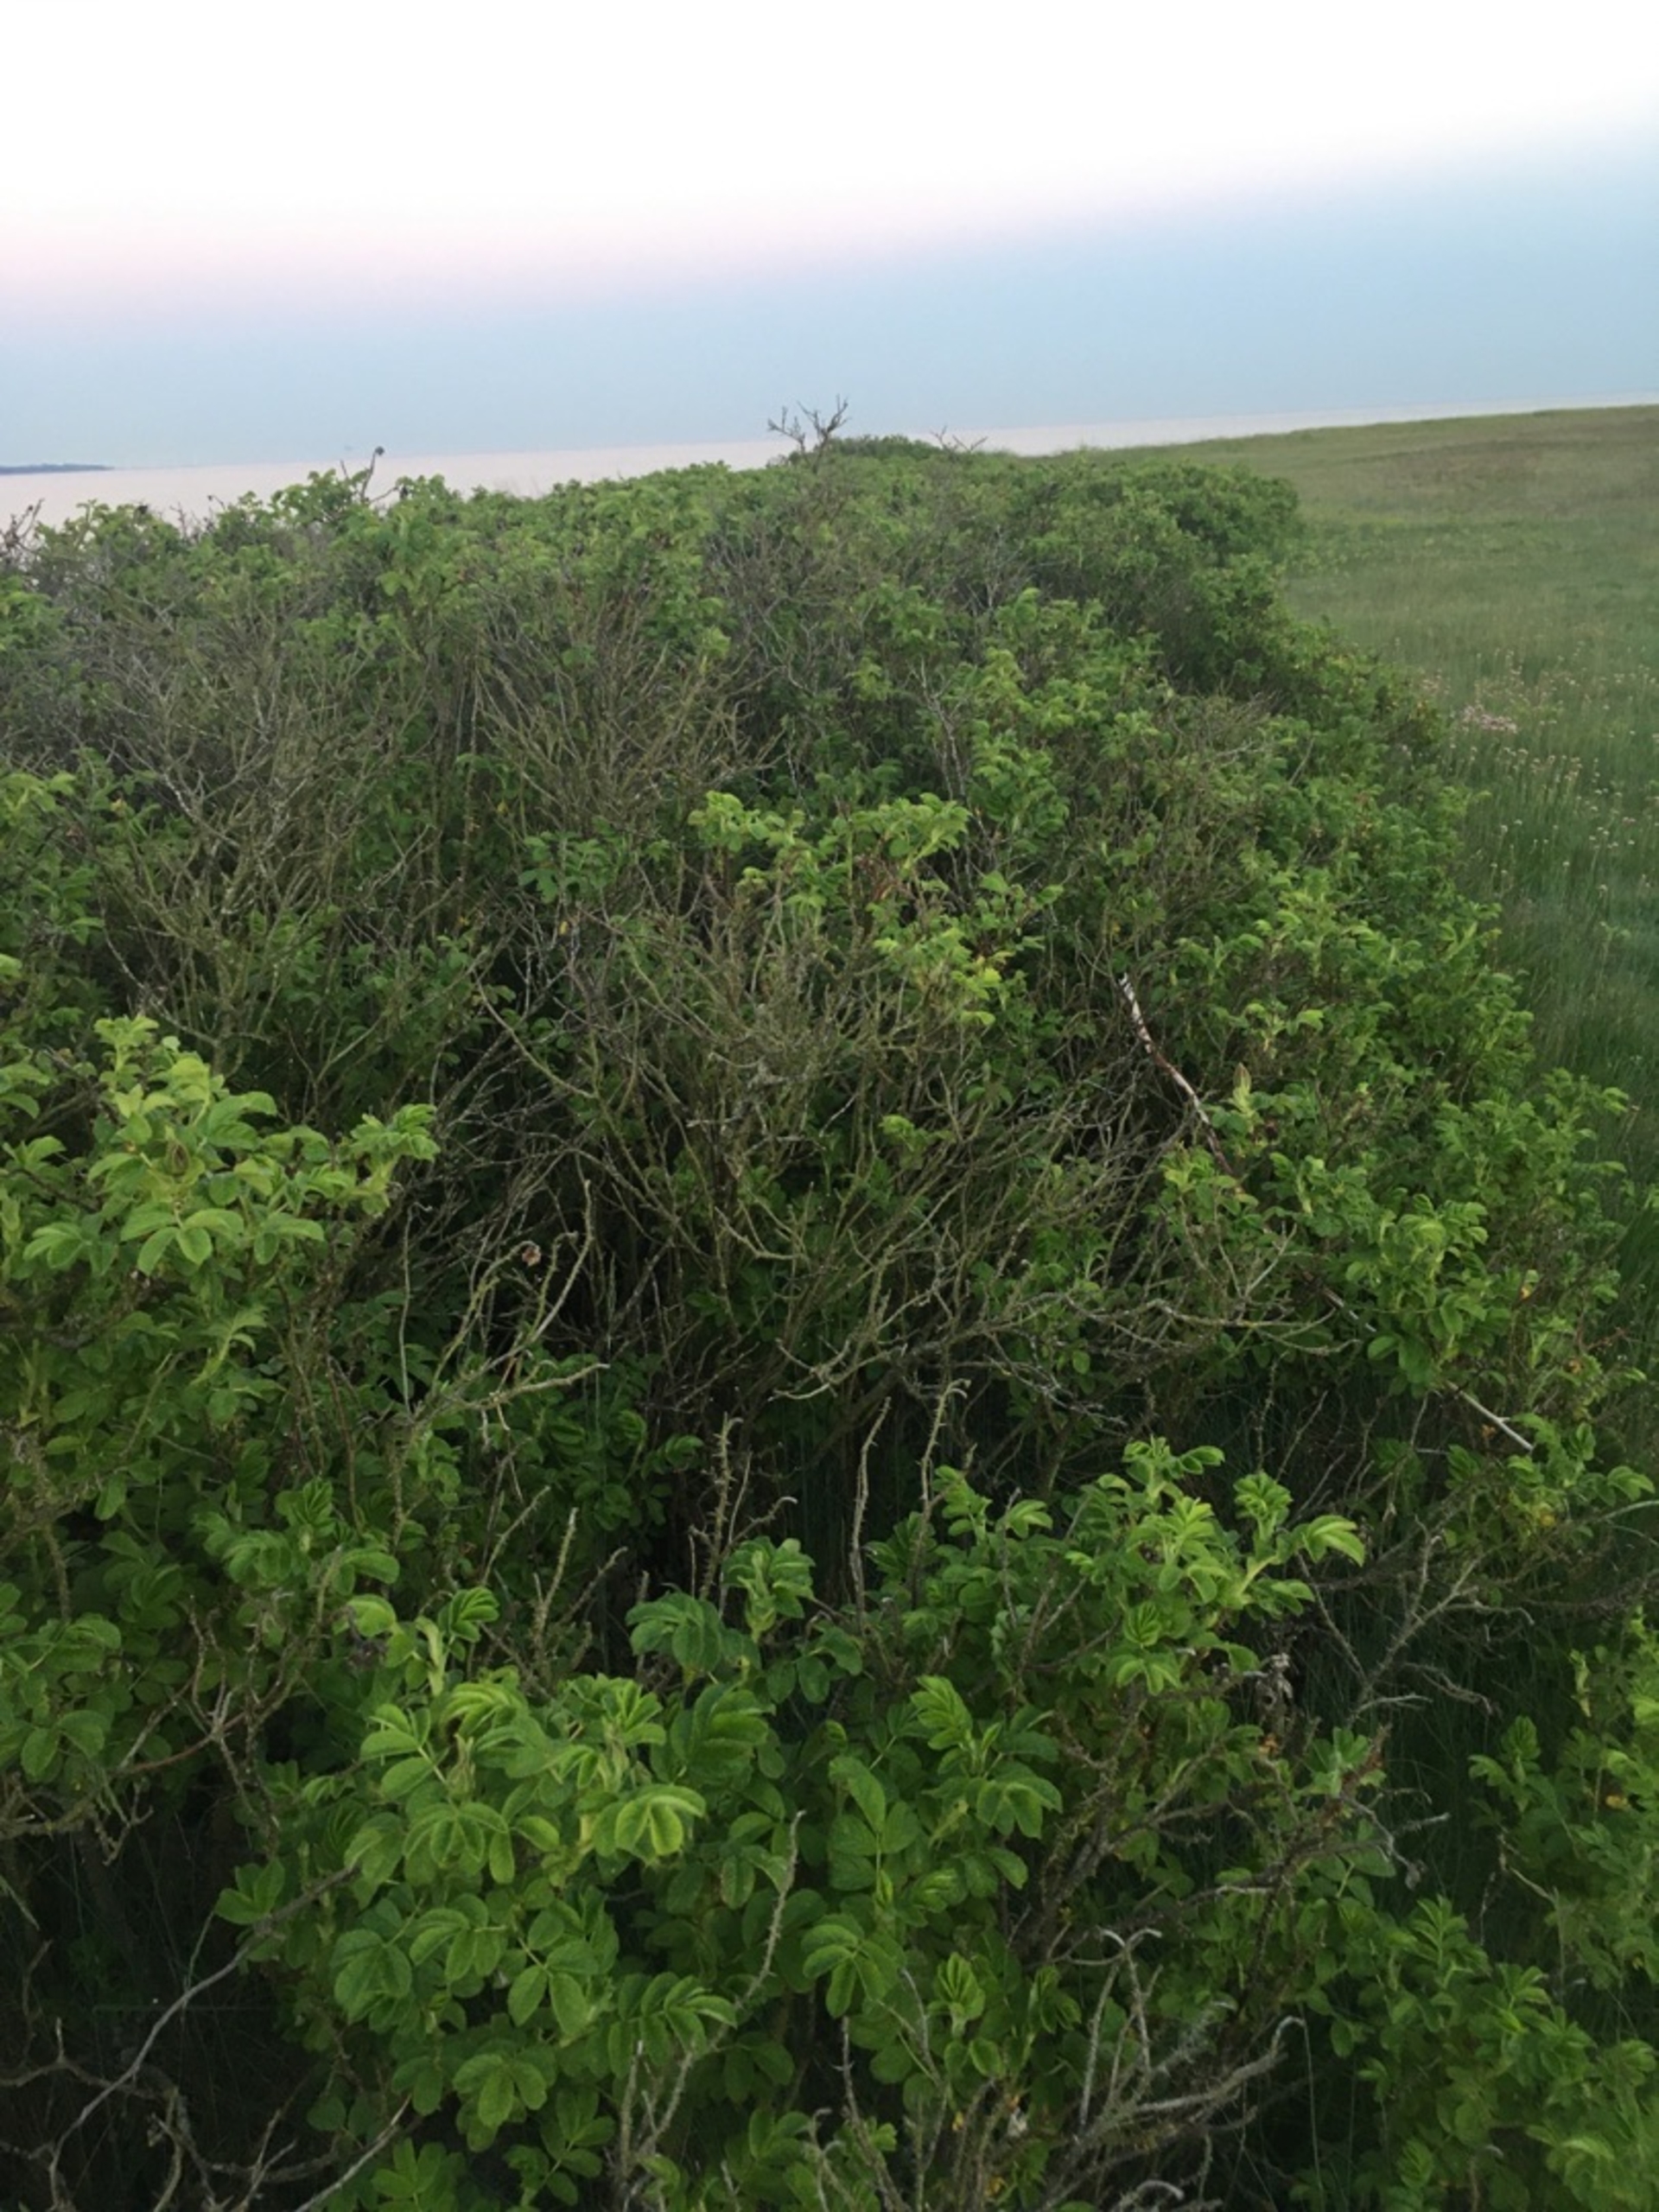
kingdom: Plantae
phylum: Tracheophyta
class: Magnoliopsida
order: Rosales
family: Rosaceae
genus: Rosa
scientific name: Rosa rugosa
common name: Rynket rose
